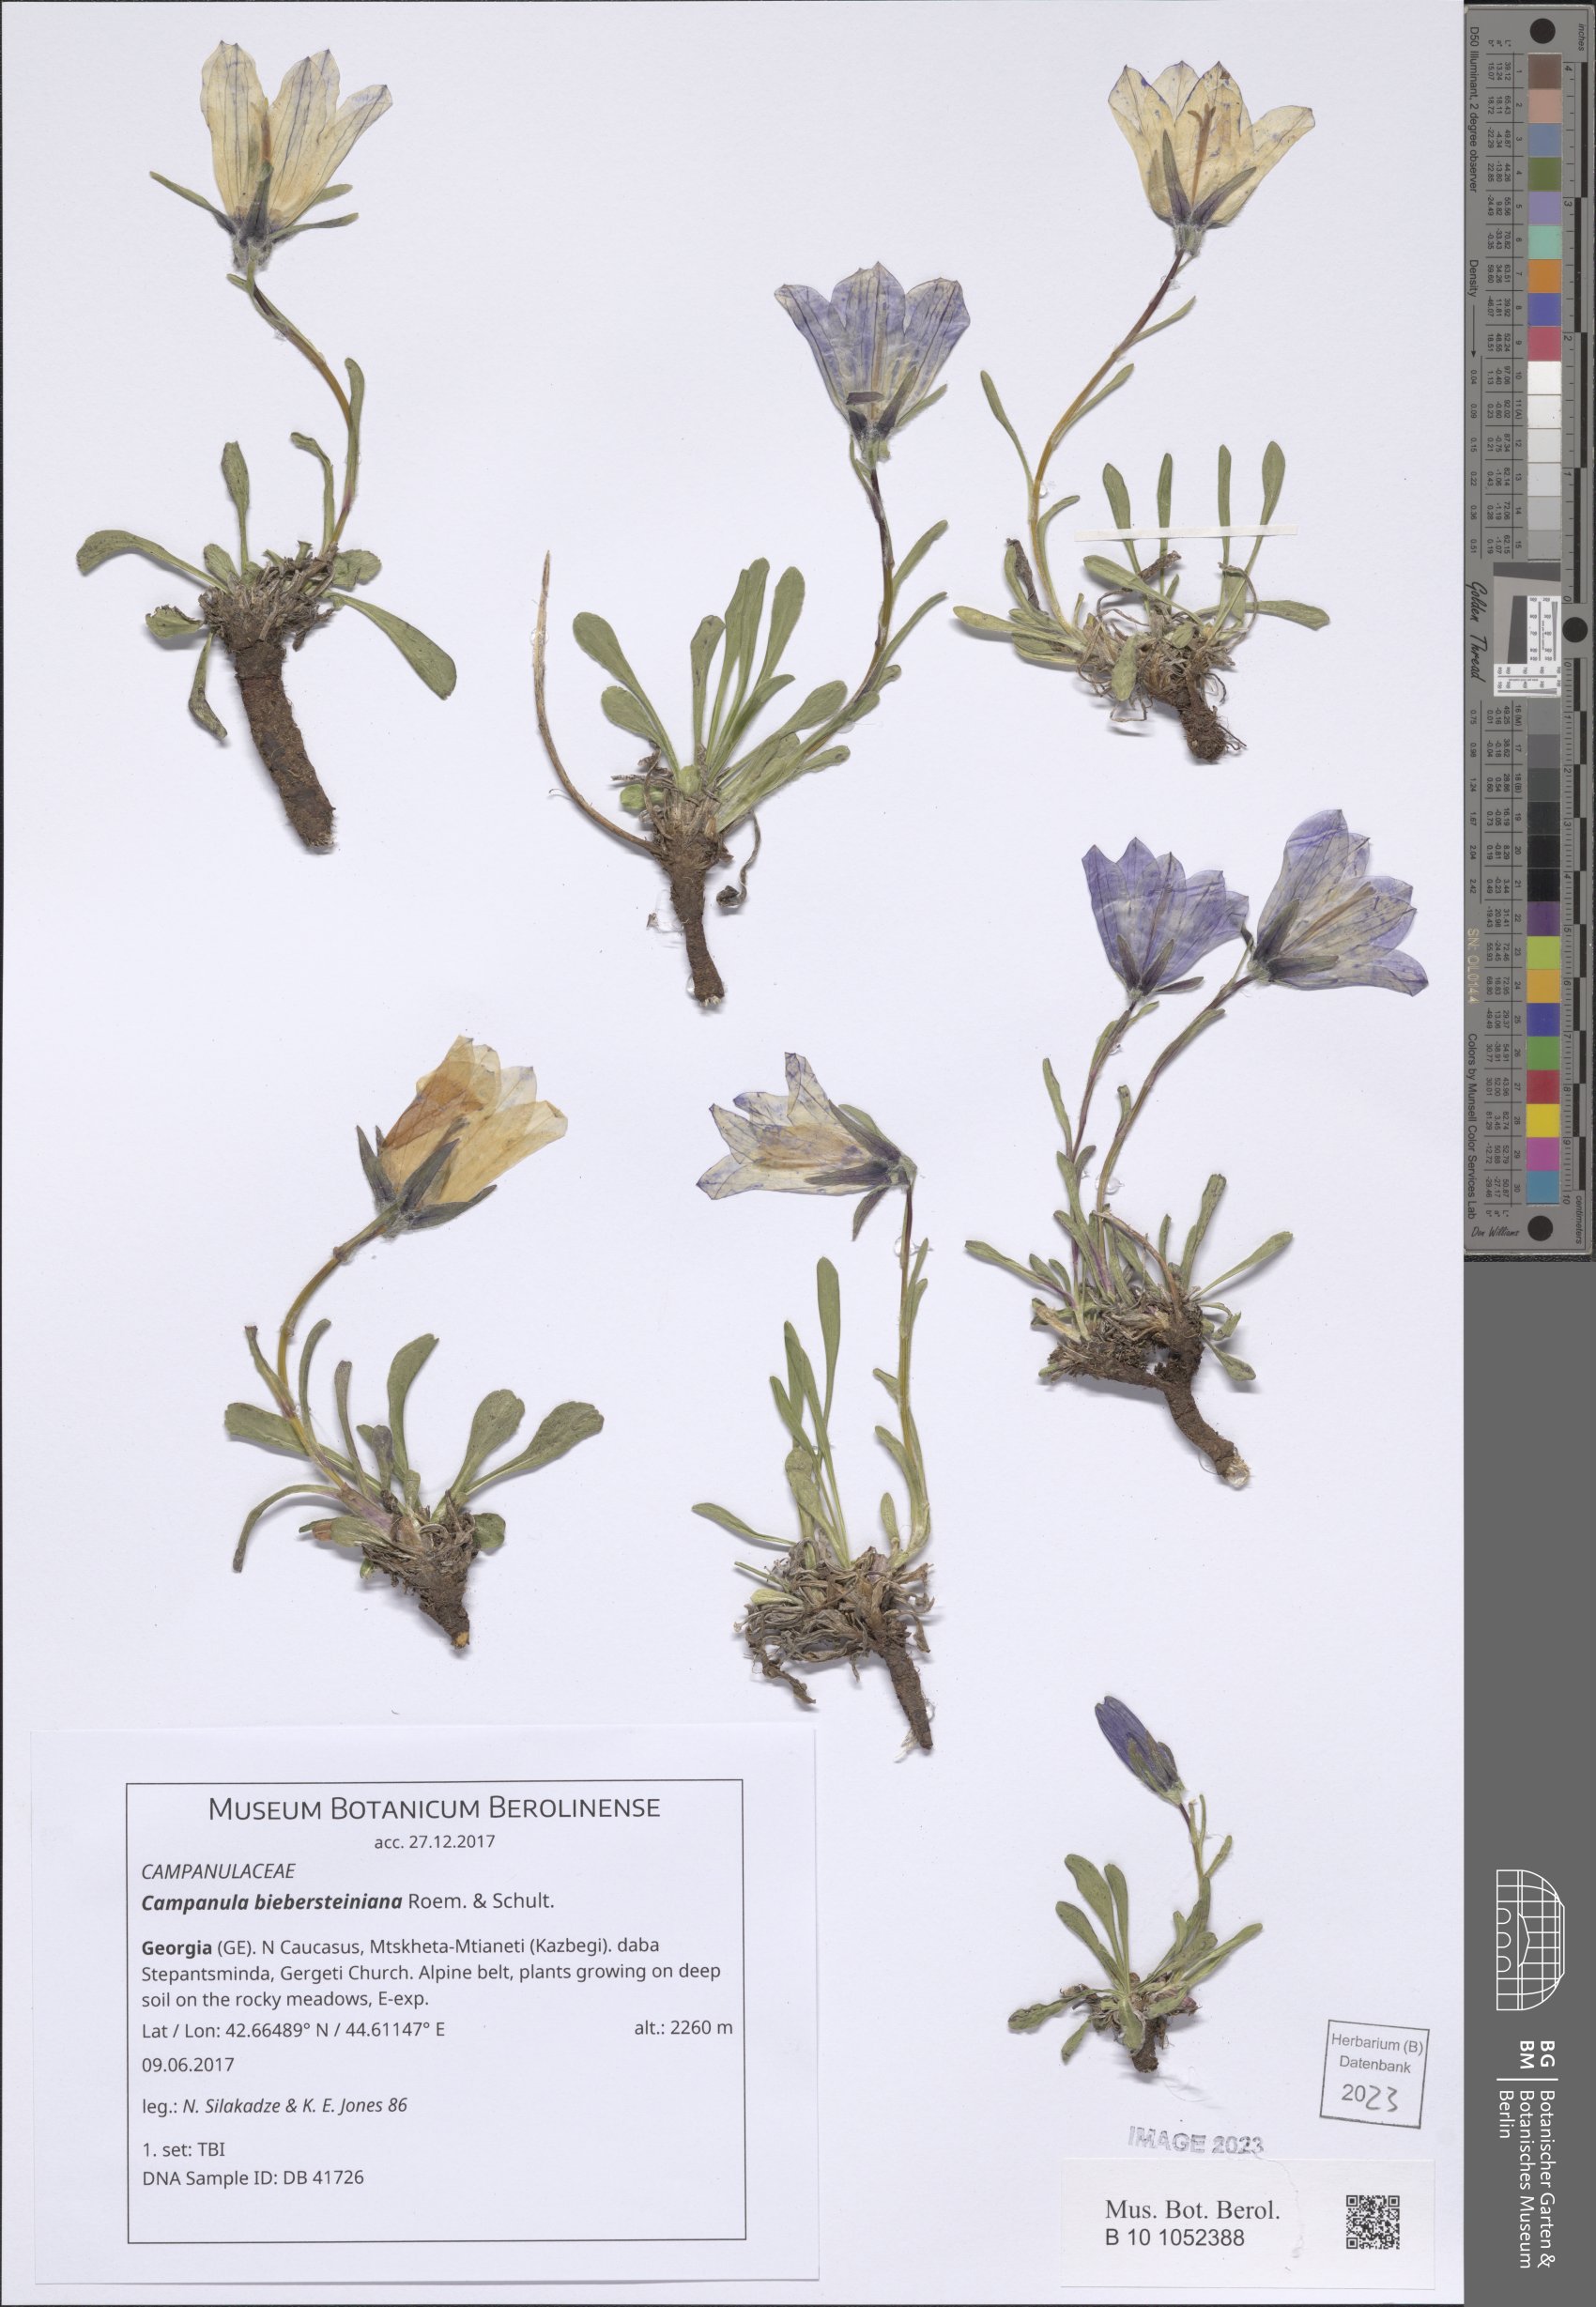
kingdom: Plantae
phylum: Tracheophyta
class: Magnoliopsida
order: Asterales
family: Campanulaceae
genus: Campanula
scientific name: Campanula tridentata
